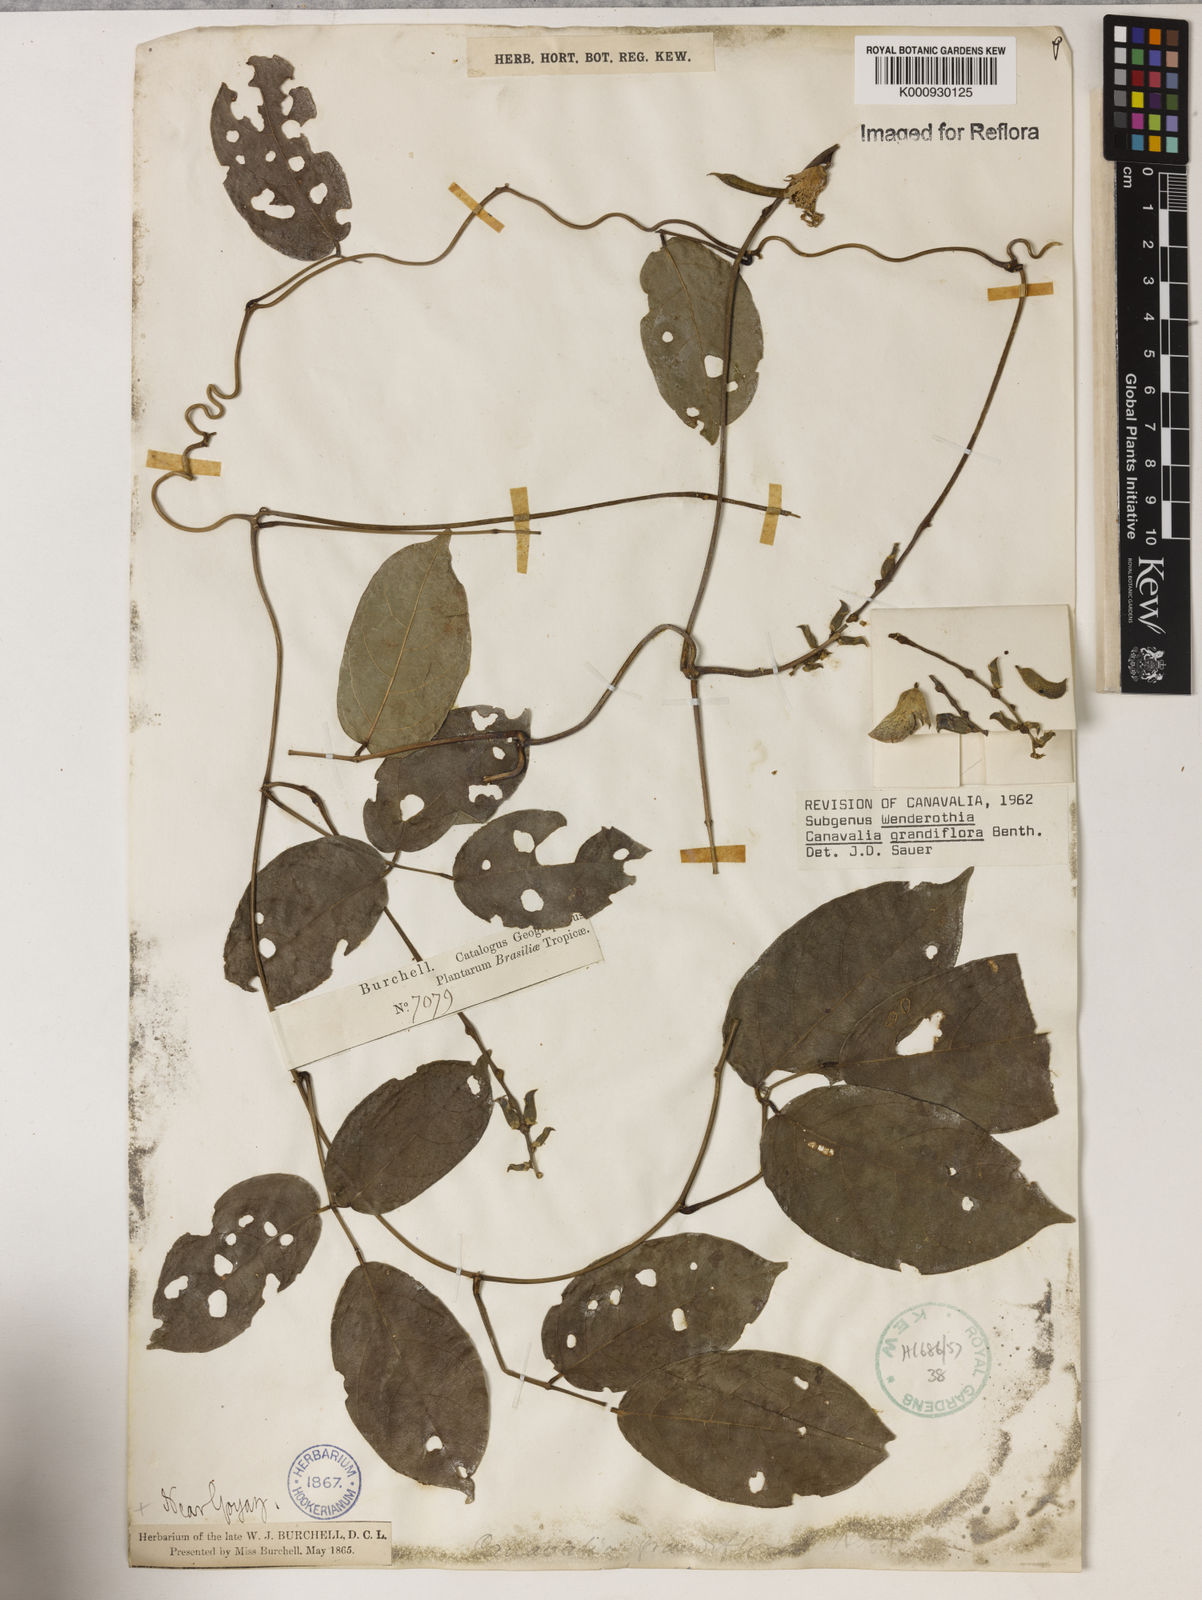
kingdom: Plantae
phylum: Tracheophyta
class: Magnoliopsida
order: Fabales
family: Fabaceae
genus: Canavalia
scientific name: Canavalia grandiflora
